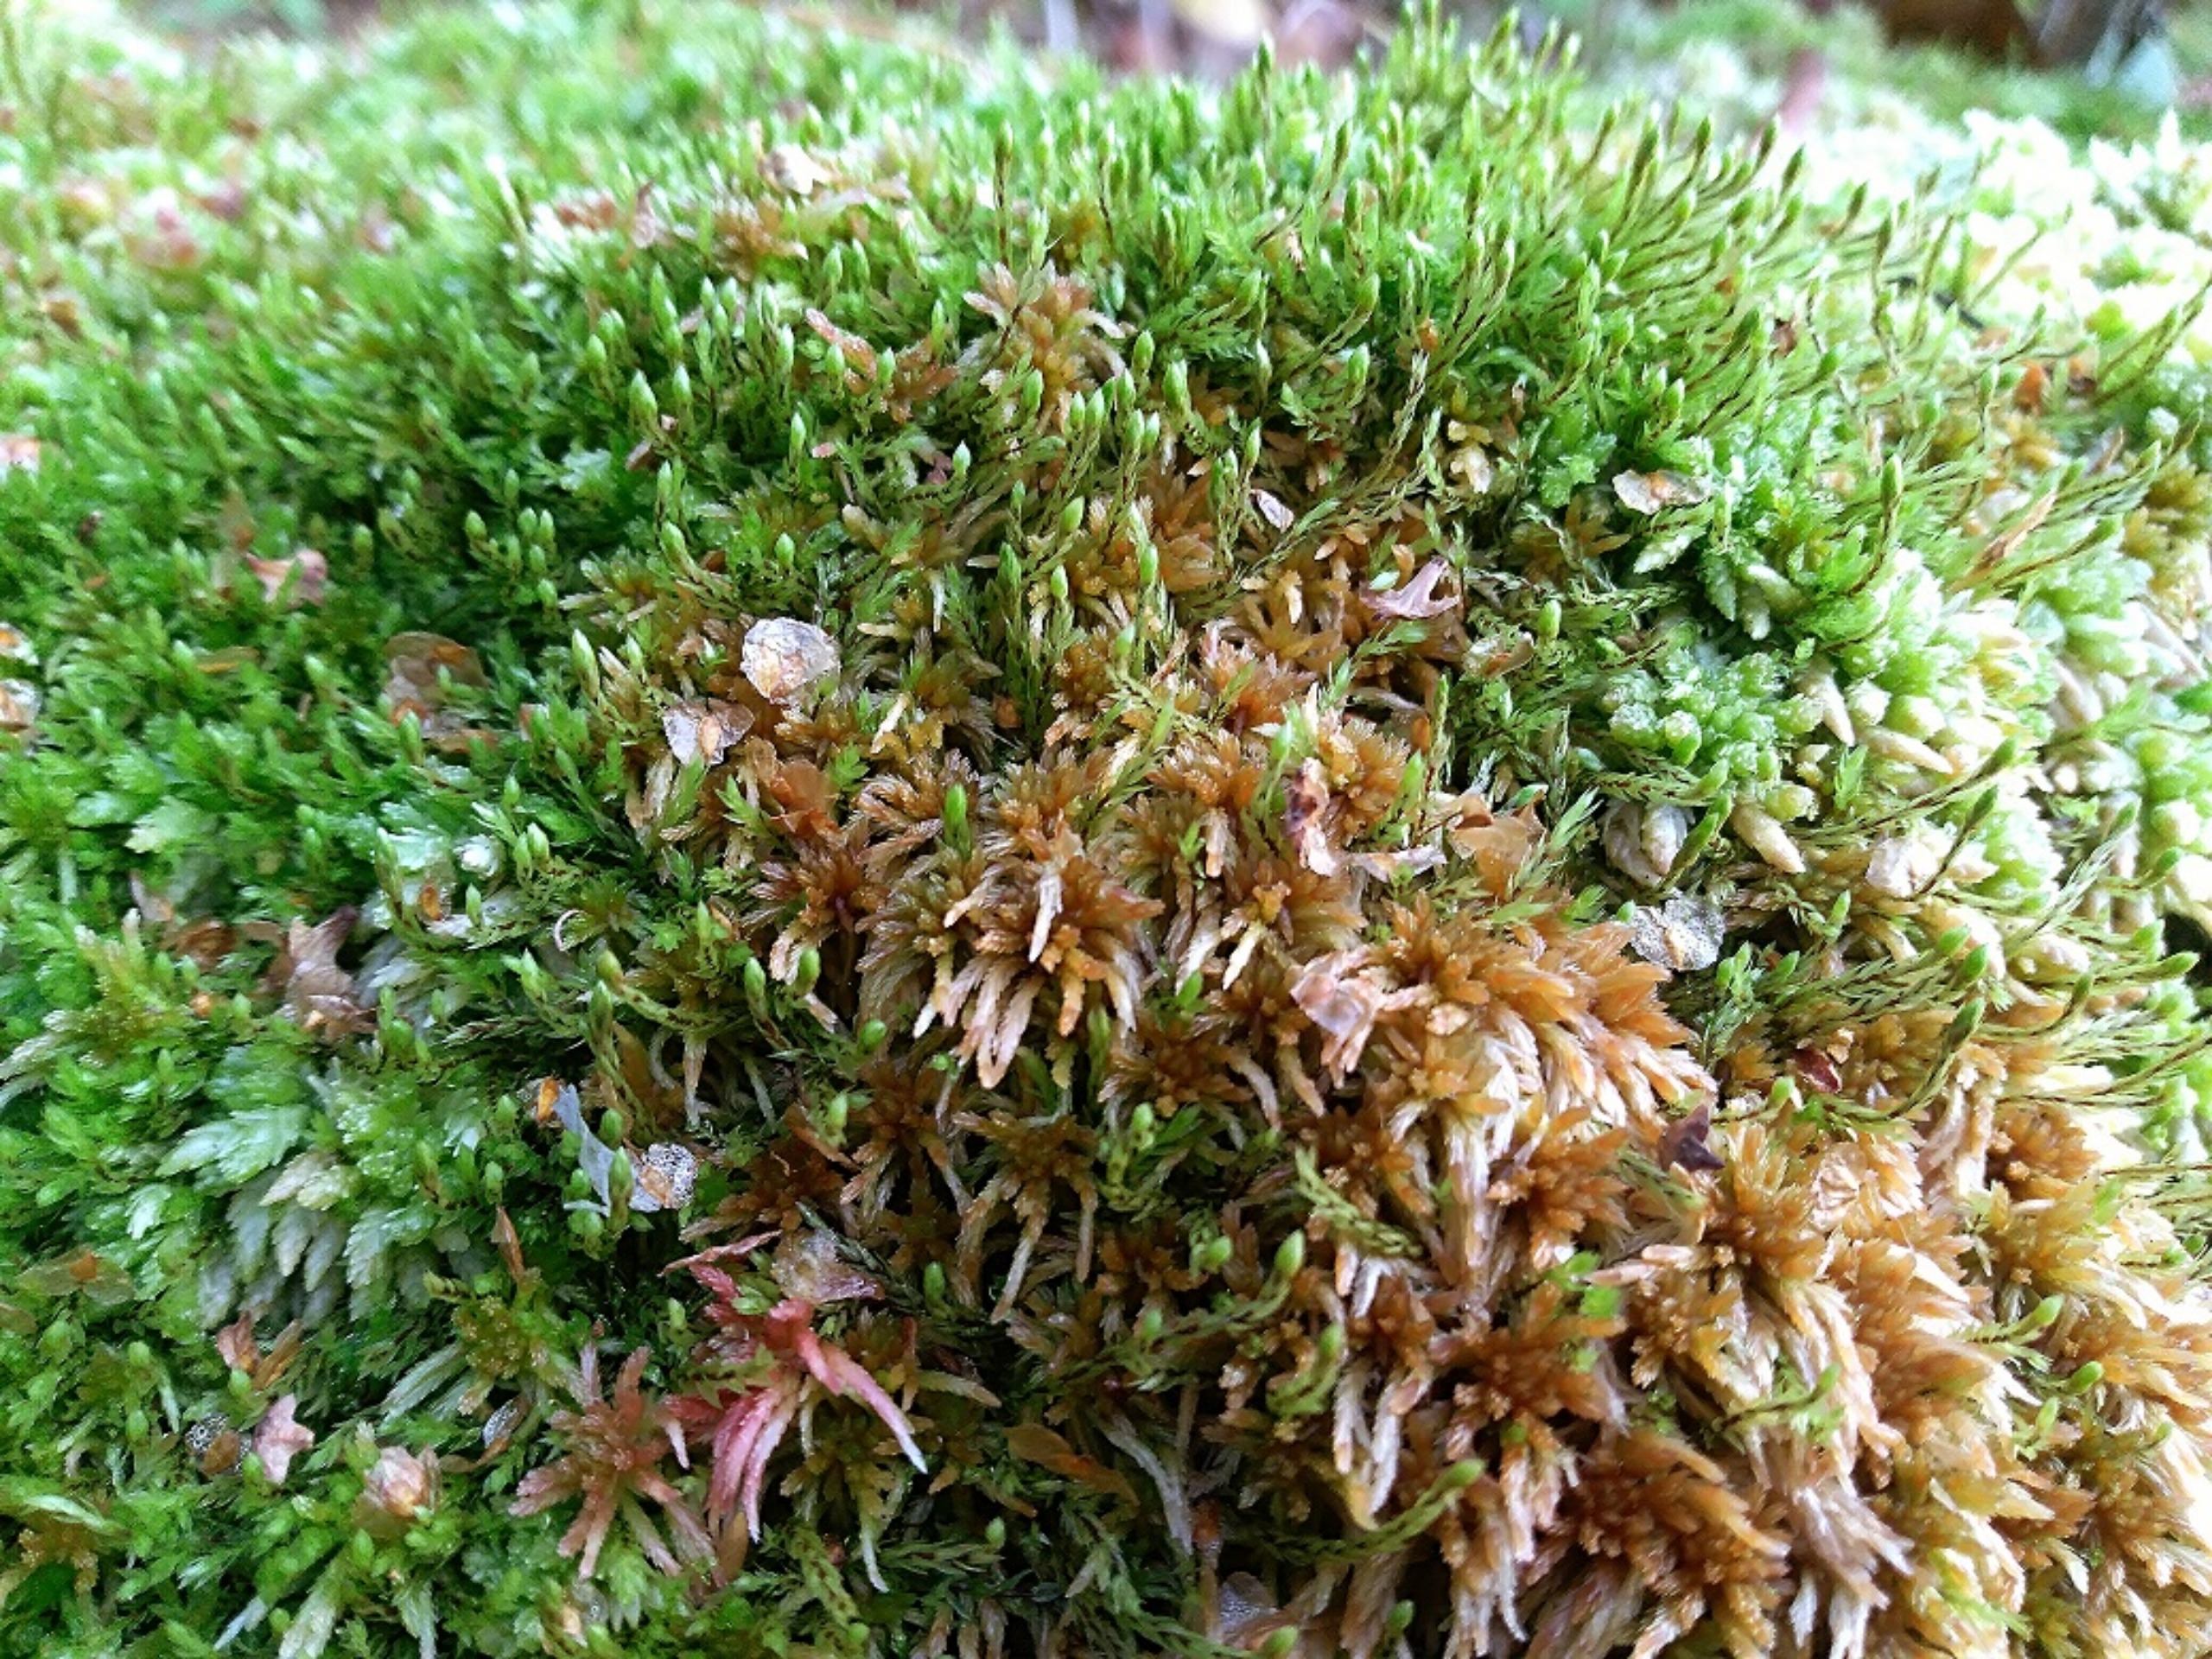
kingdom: Plantae
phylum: Bryophyta
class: Sphagnopsida
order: Sphagnales
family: Sphagnaceae
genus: Sphagnum
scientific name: Sphagnum fuscum
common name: Rustbrun tørvemos
